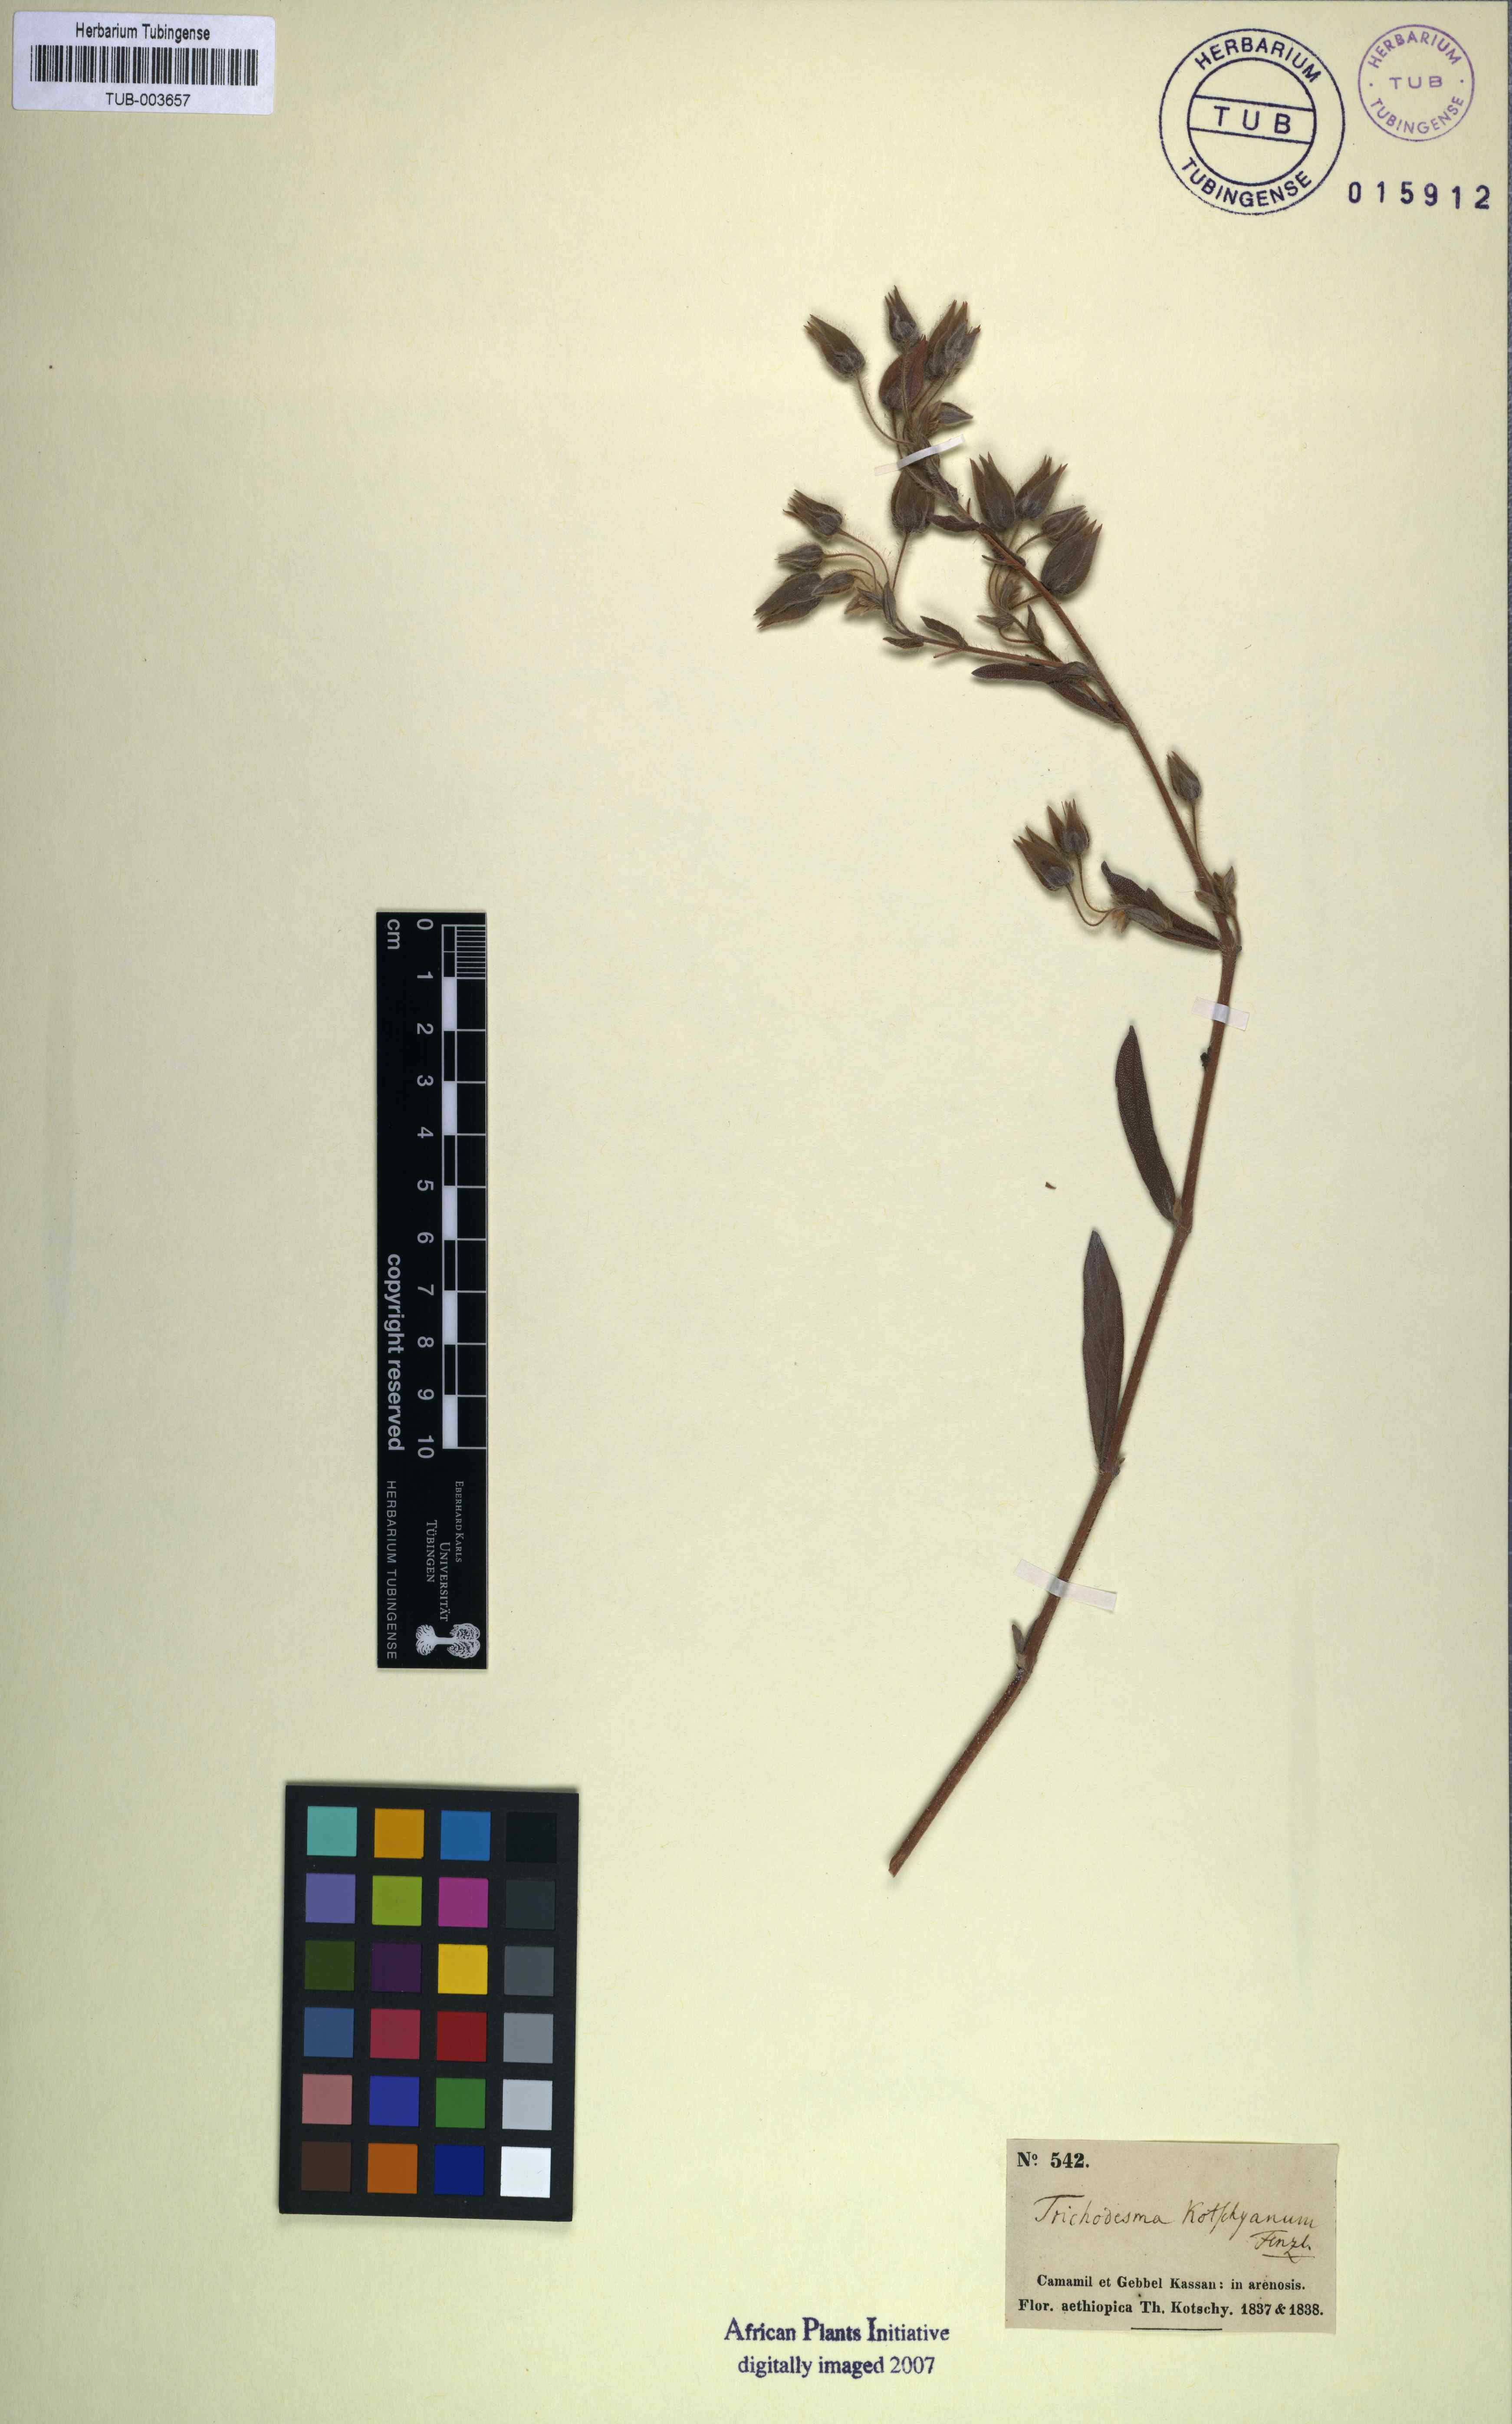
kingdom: Plantae
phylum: Tracheophyta
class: Magnoliopsida
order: Boraginales
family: Boraginaceae
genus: Trichodesma
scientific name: Trichodesma zeylanicum
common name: Camelbush
